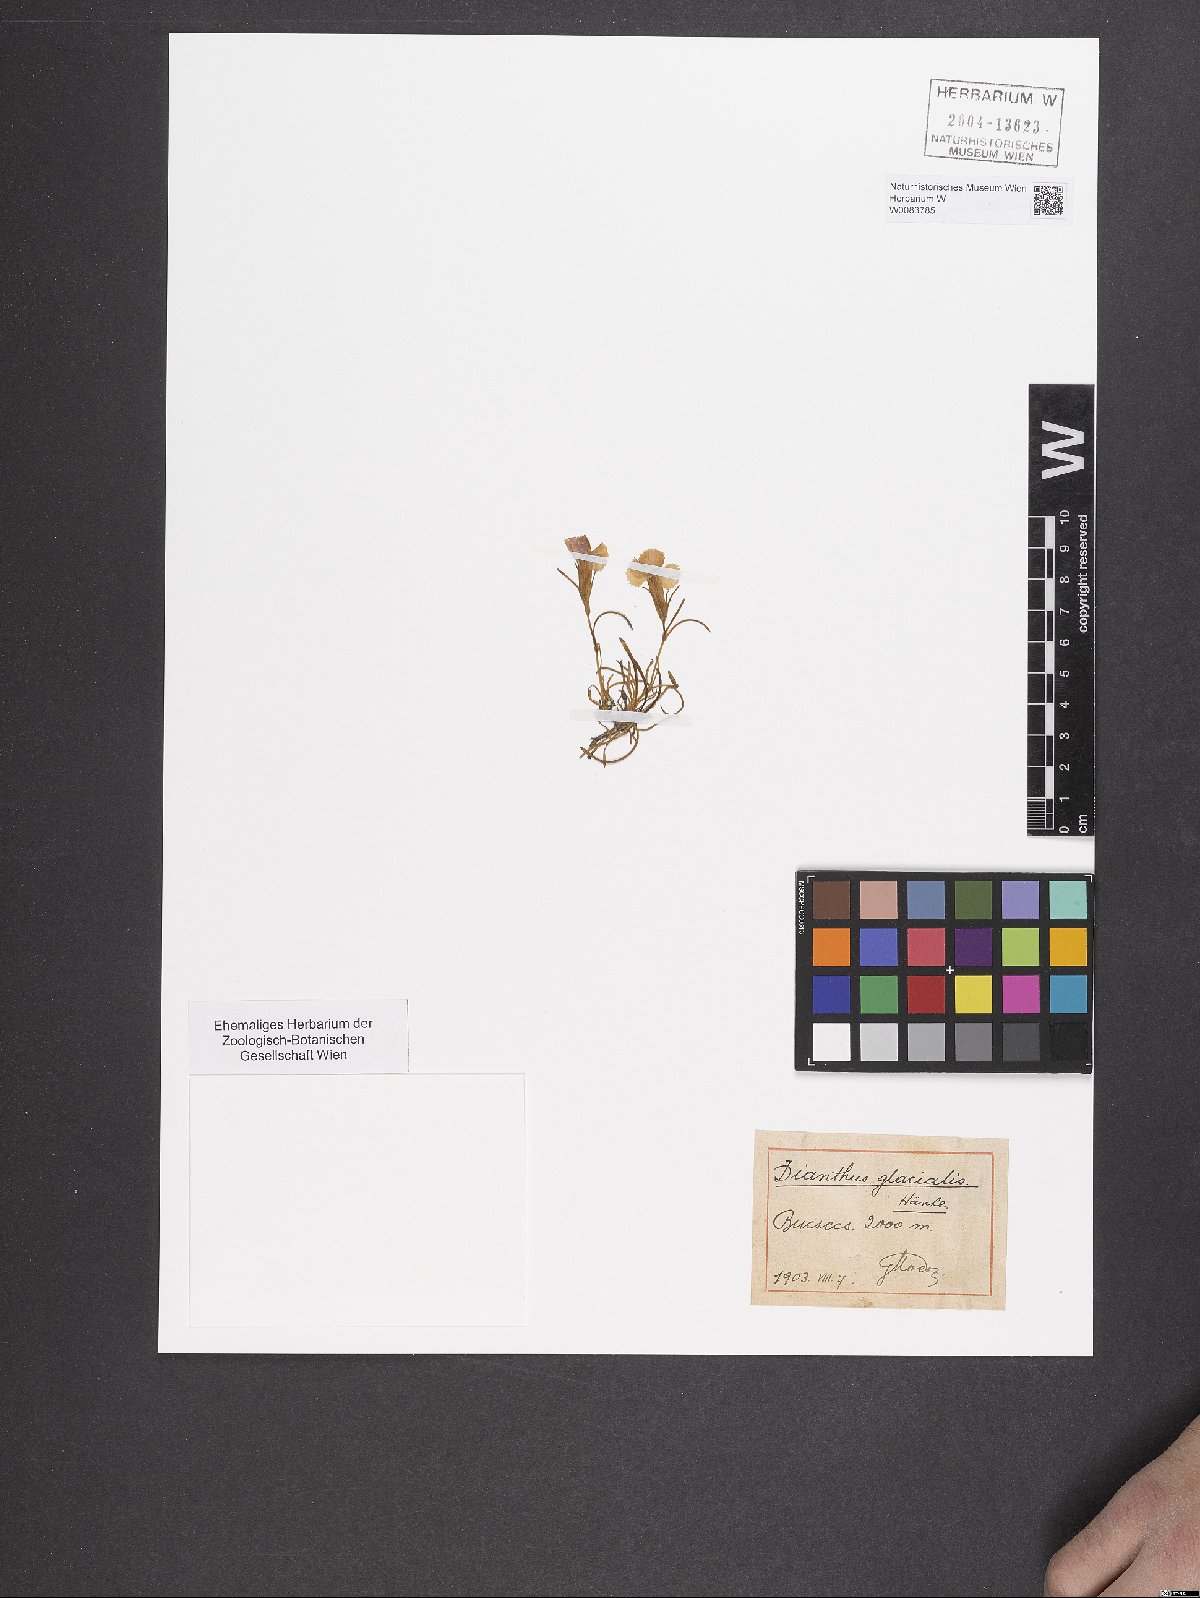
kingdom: Plantae
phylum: Tracheophyta
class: Magnoliopsida
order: Caryophyllales
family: Caryophyllaceae
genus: Dianthus
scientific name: Dianthus glacialis
